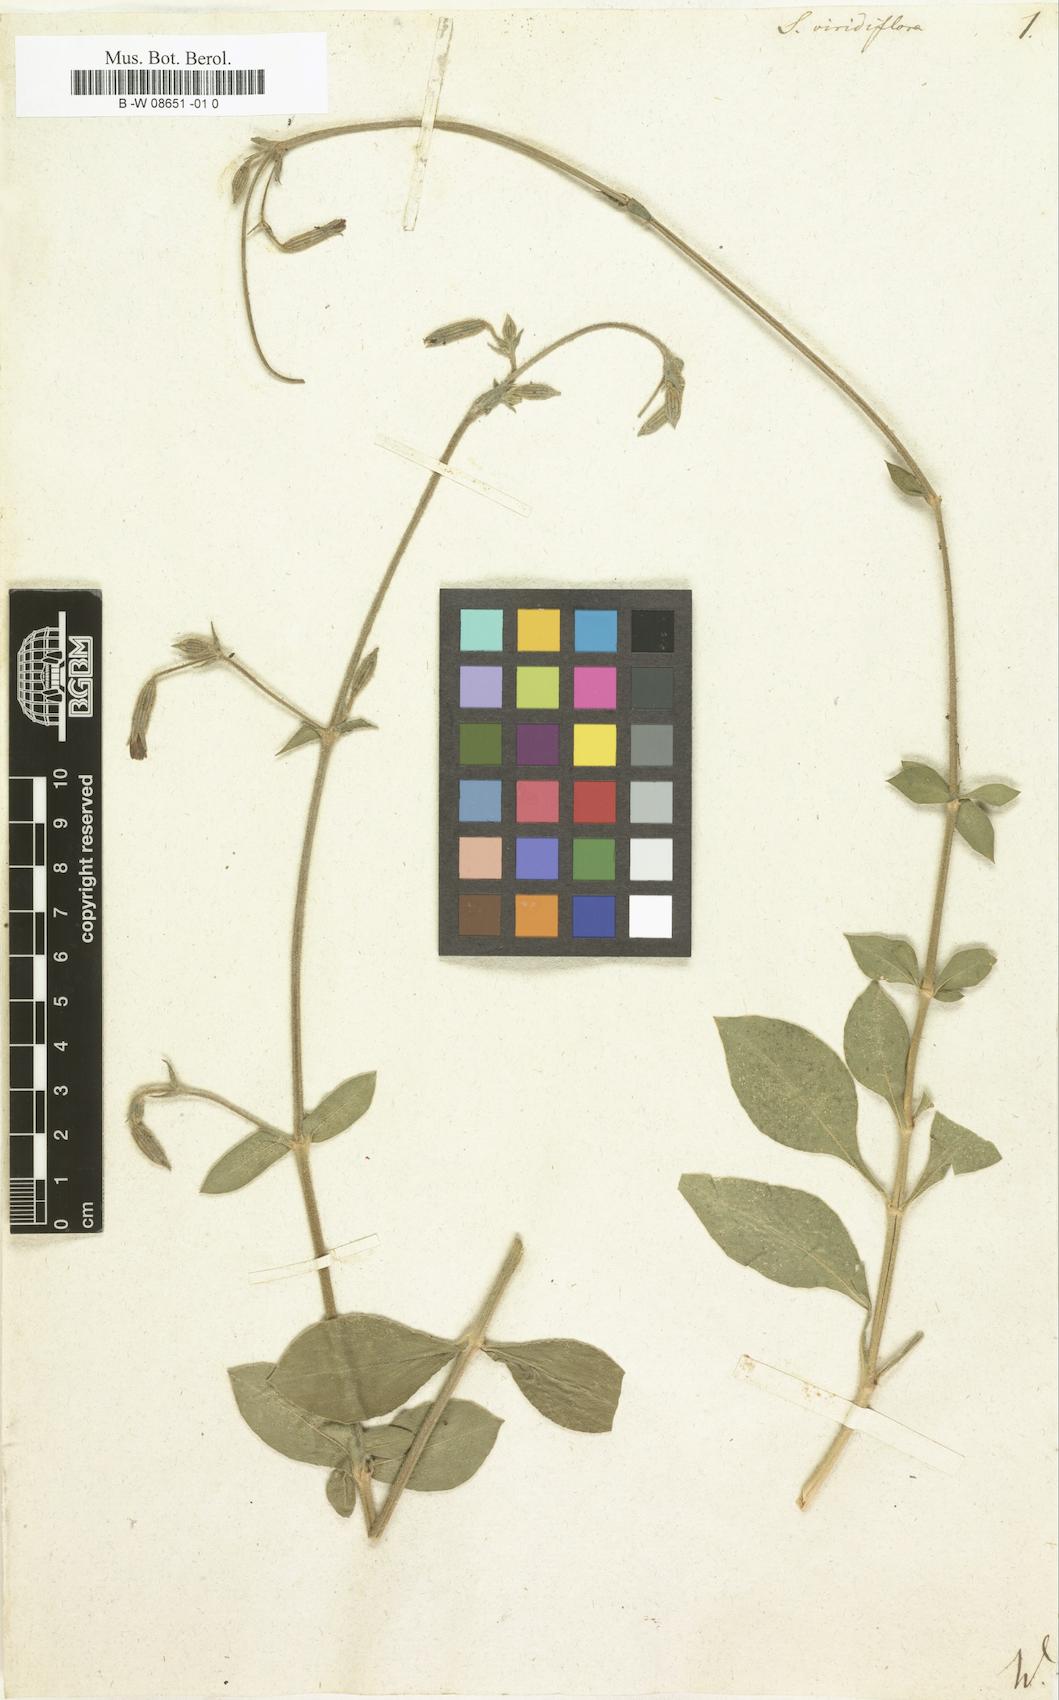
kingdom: Plantae
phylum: Tracheophyta
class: Magnoliopsida
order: Caryophyllales
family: Caryophyllaceae
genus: Silene
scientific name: Silene viridiflora
